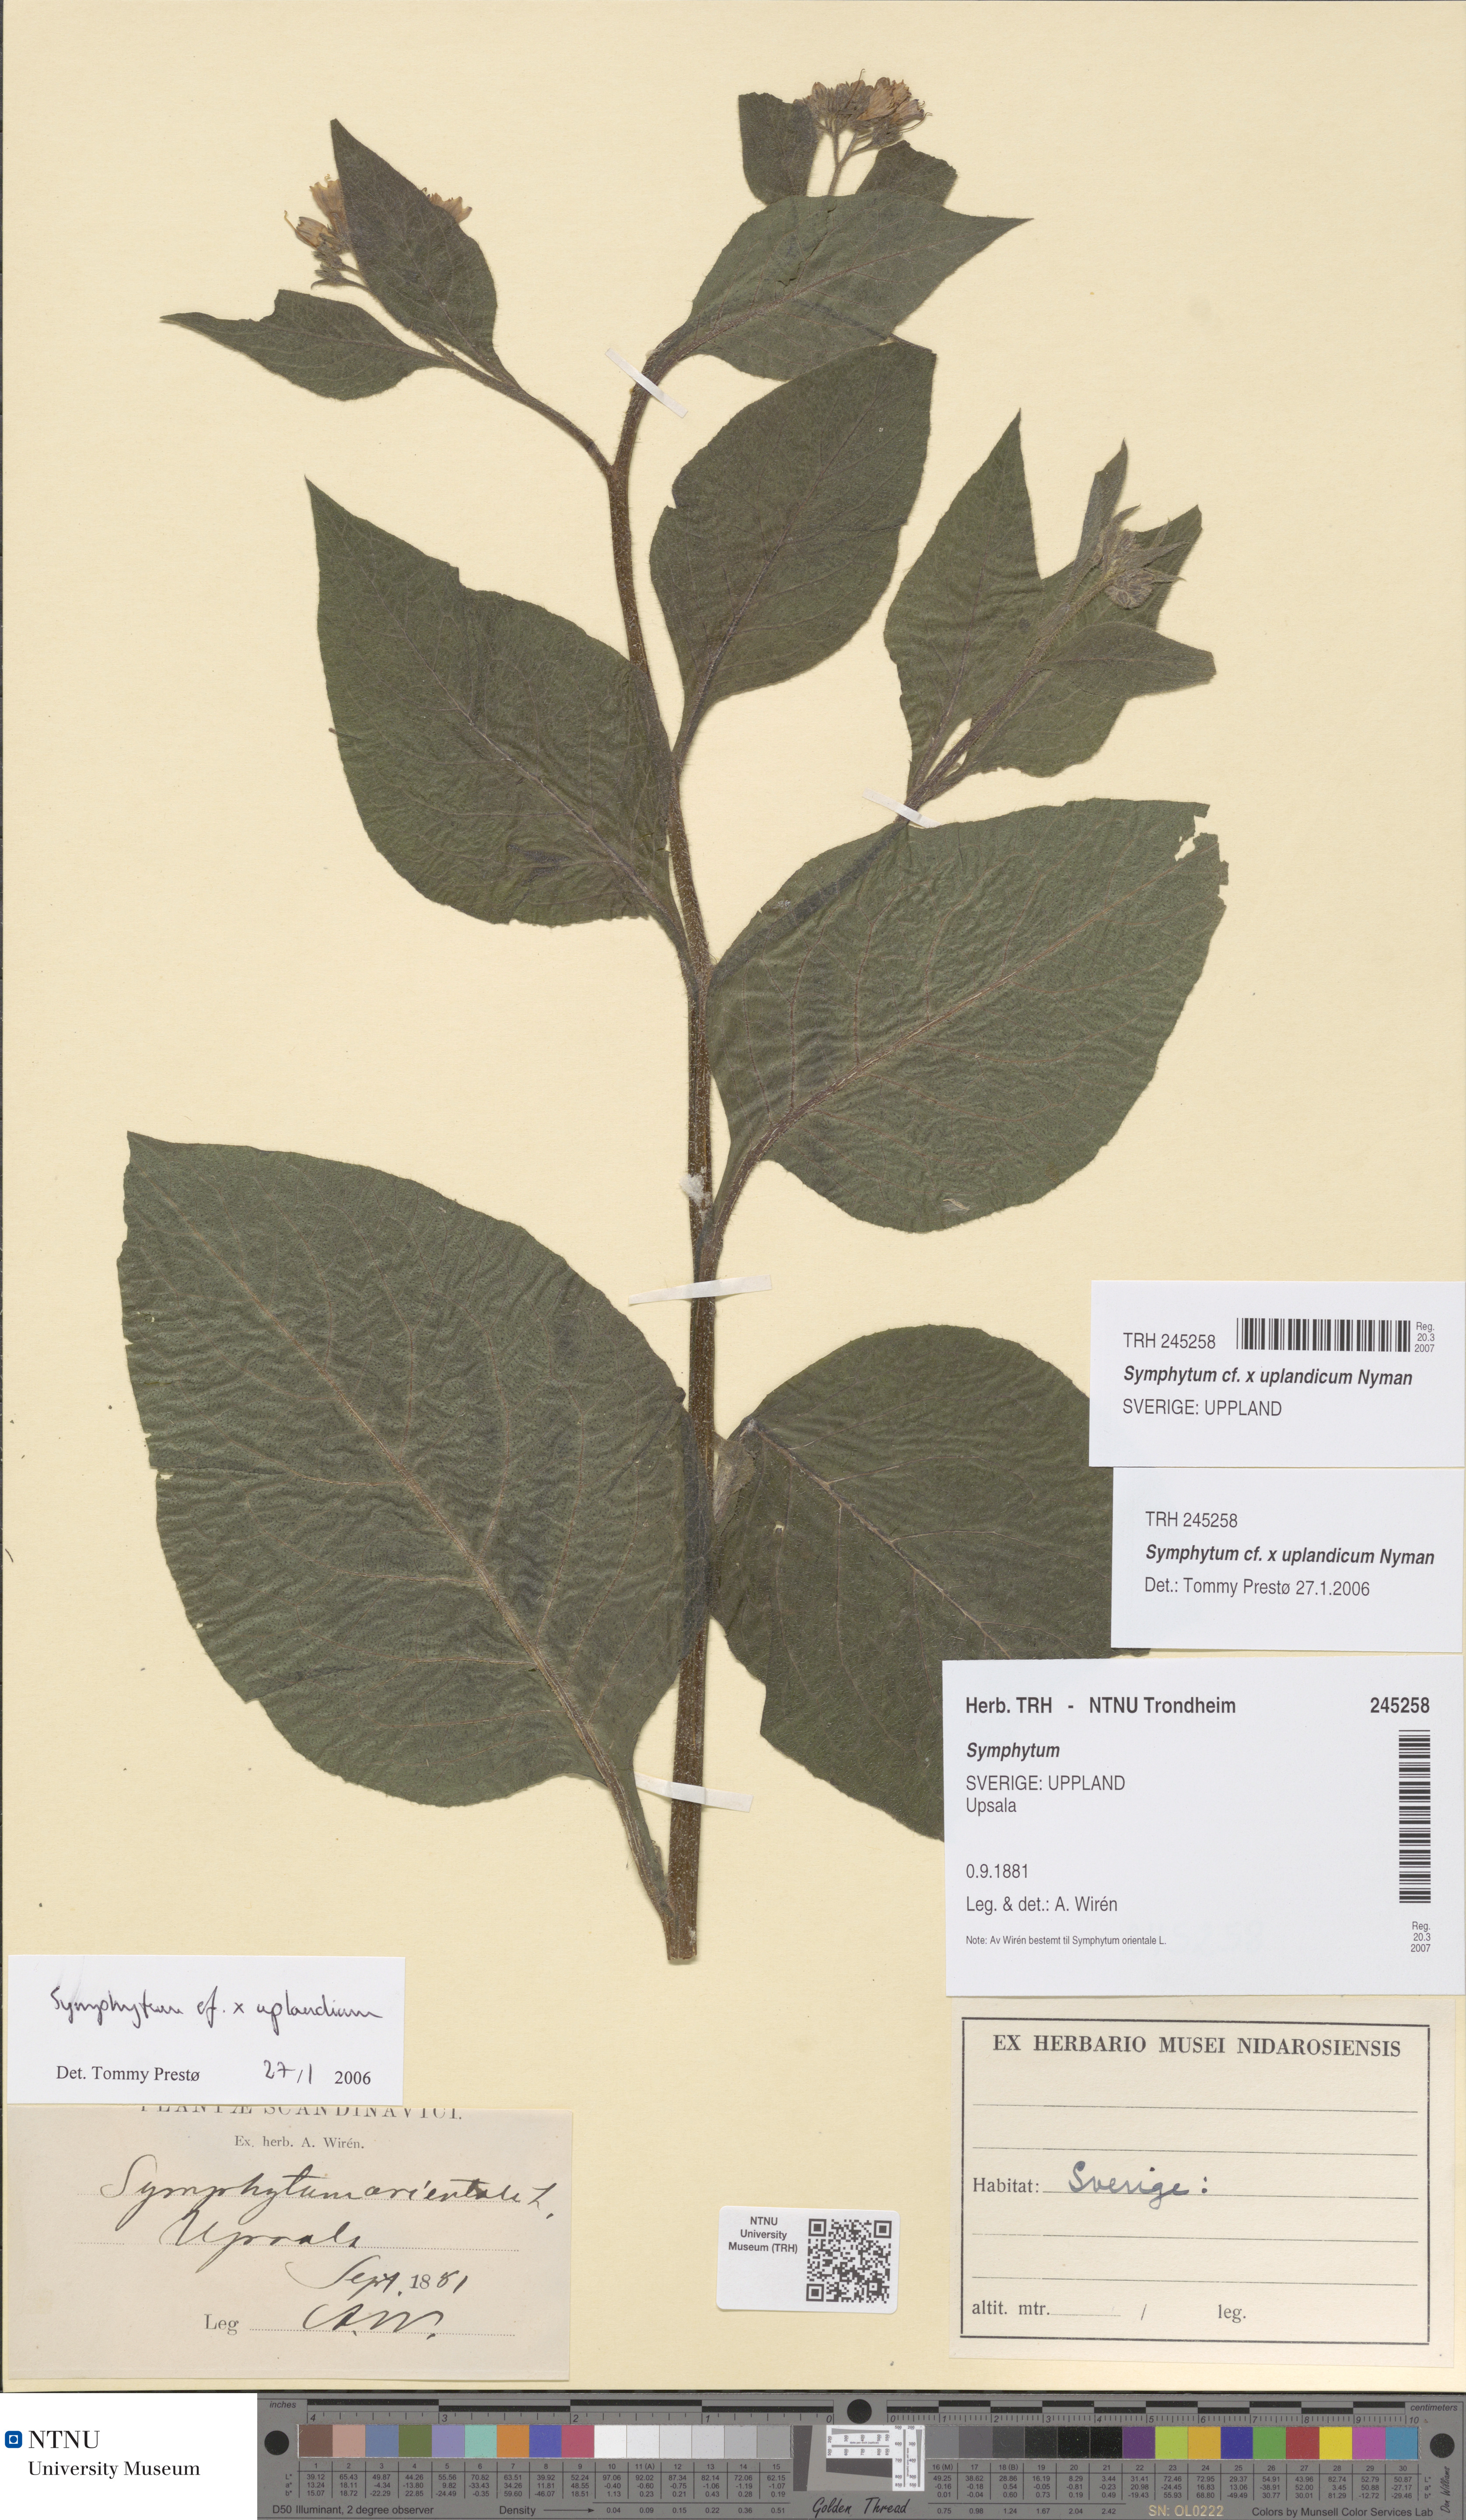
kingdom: Plantae
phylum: Tracheophyta
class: Magnoliopsida
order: Boraginales
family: Boraginaceae
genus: Symphytum
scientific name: Symphytum uplandicum
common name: Russian comfrey
